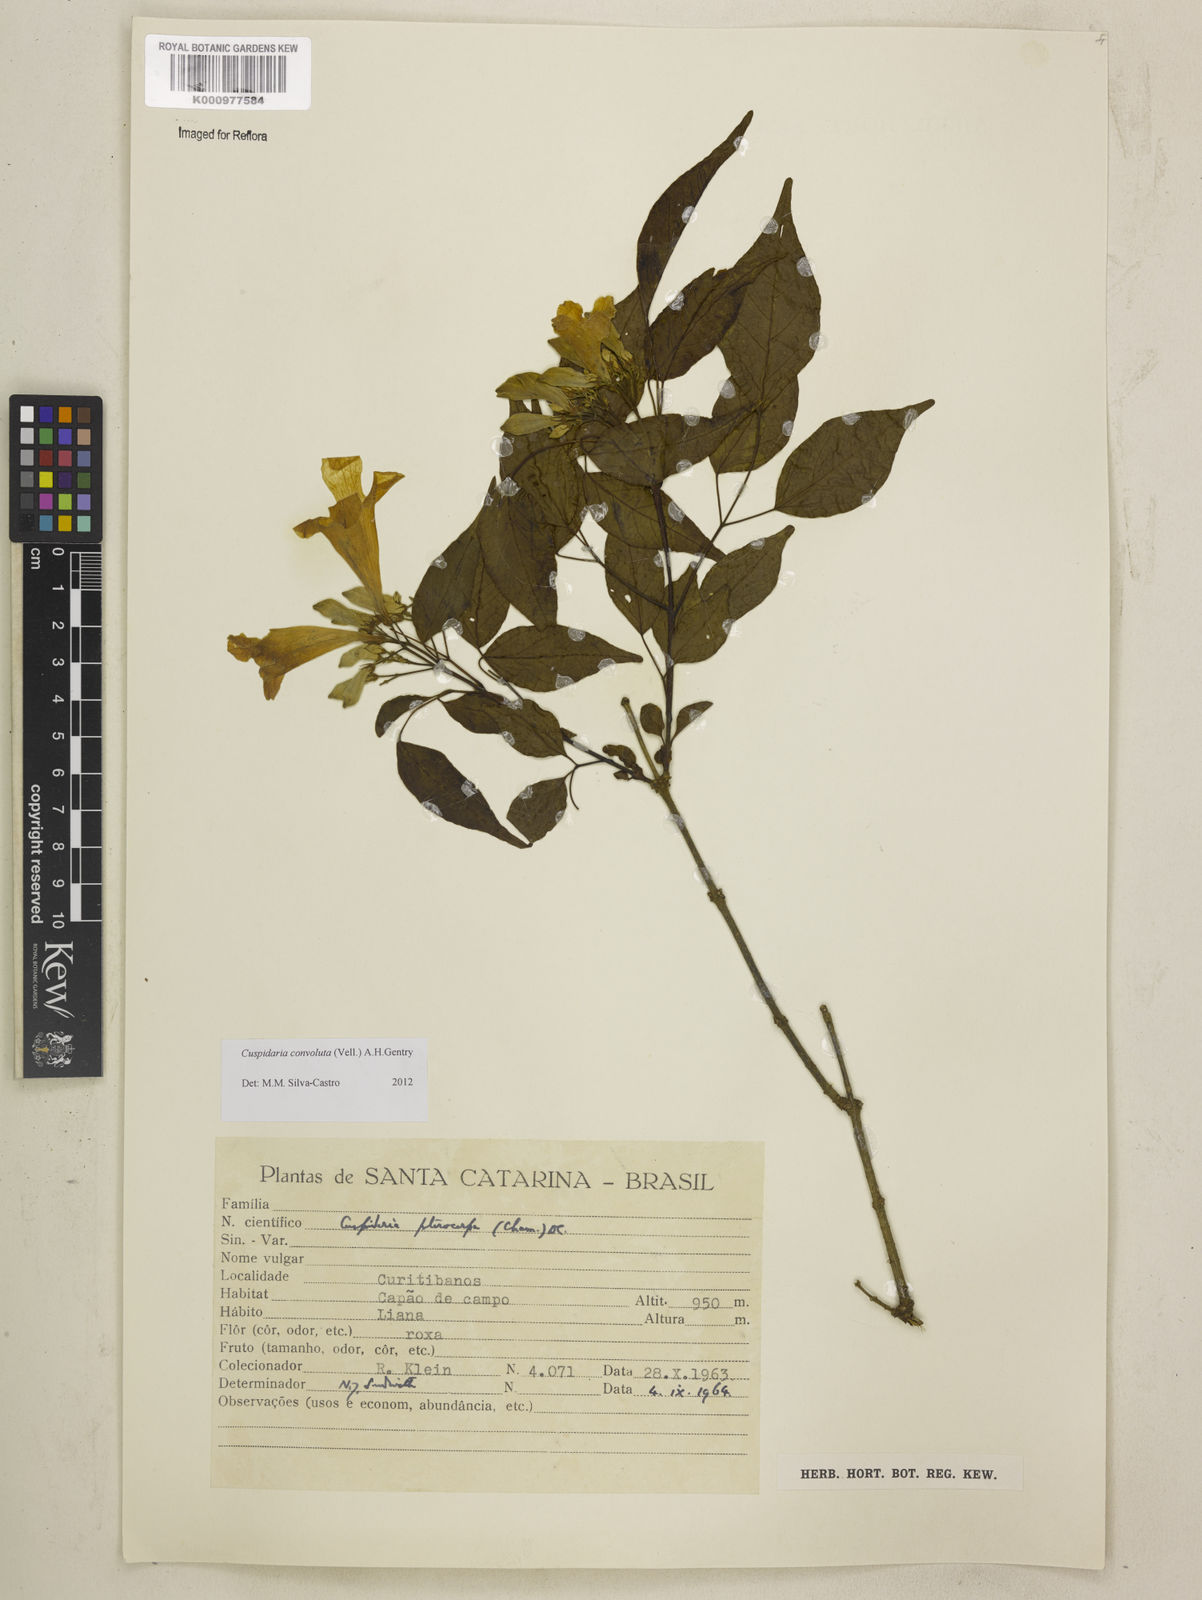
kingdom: Plantae
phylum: Tracheophyta
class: Magnoliopsida
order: Lamiales
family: Bignoniaceae
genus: Cuspidaria
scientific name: Cuspidaria convoluta
